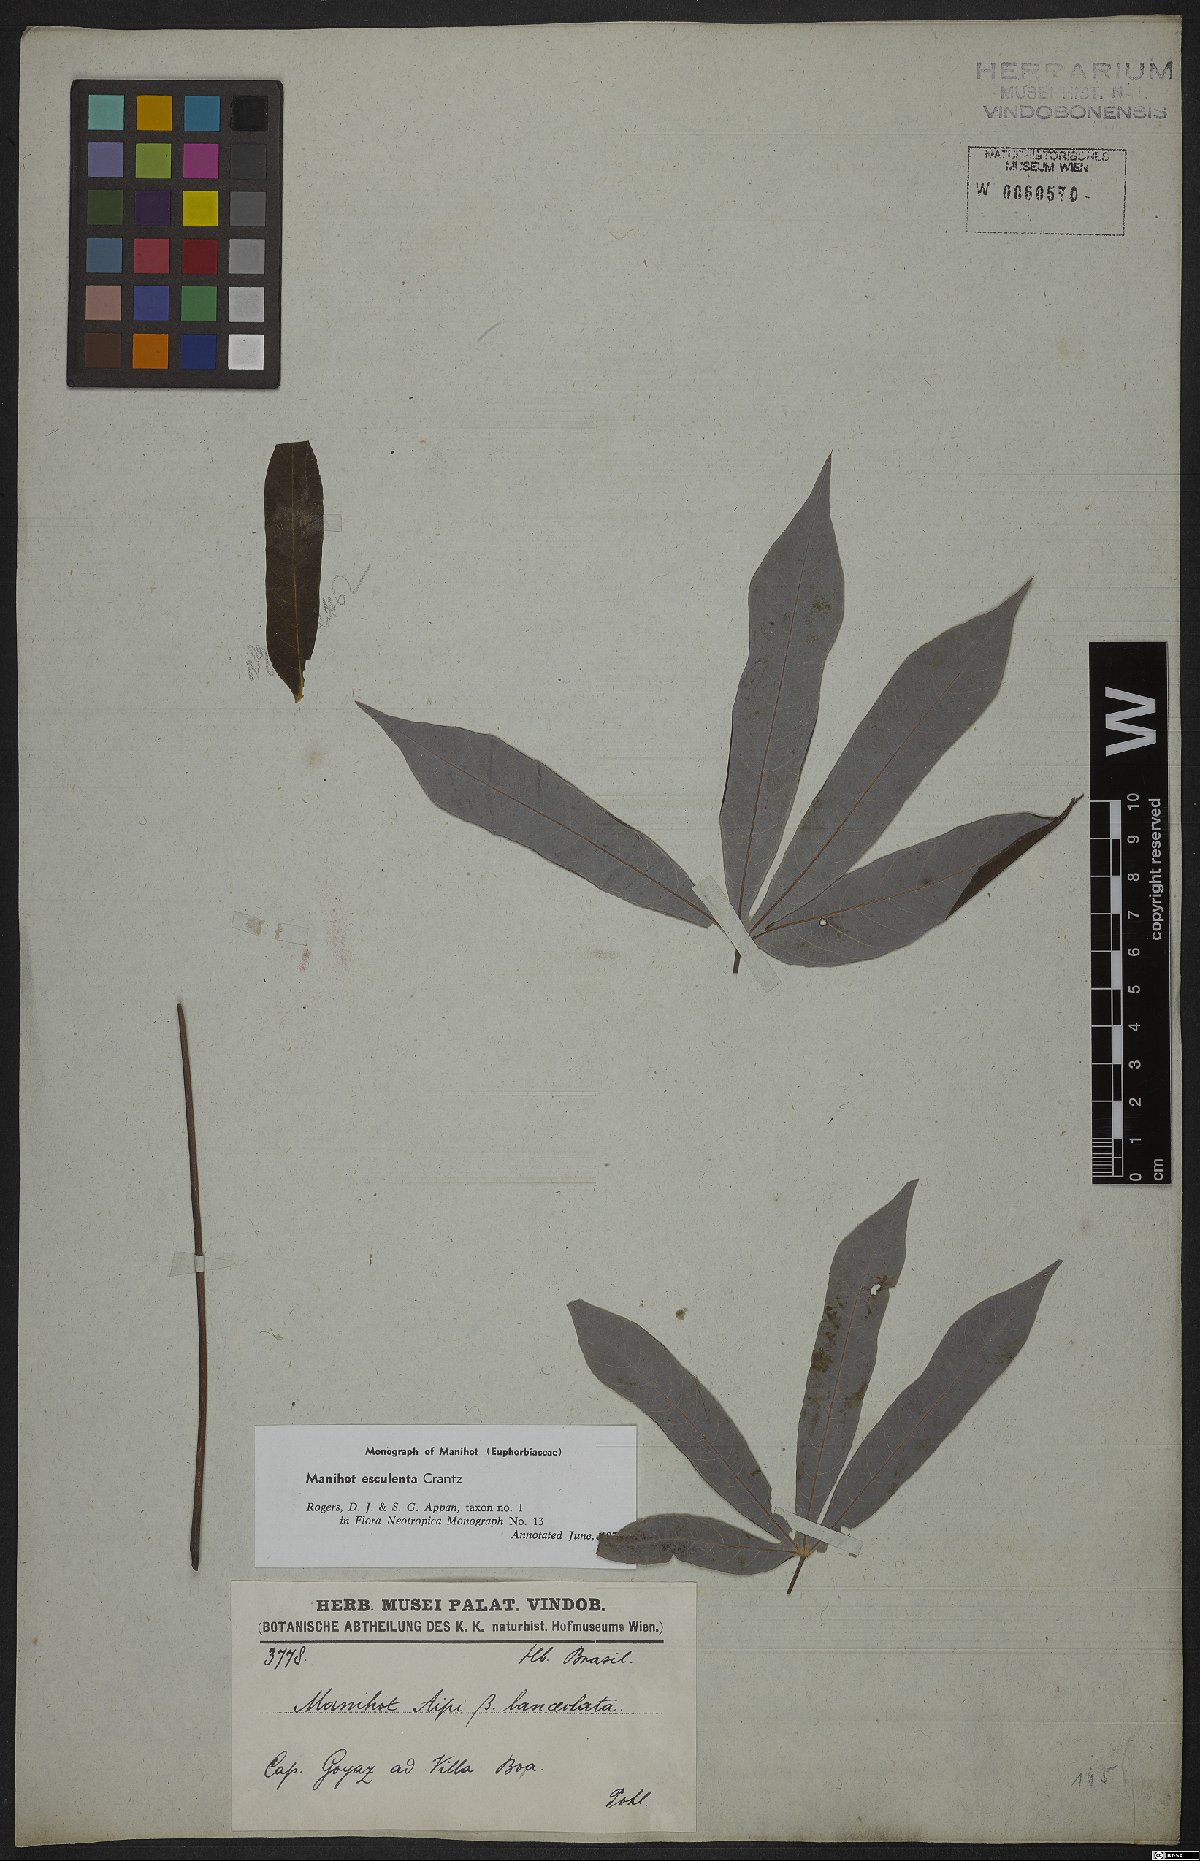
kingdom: Plantae
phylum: Tracheophyta
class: Magnoliopsida
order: Malpighiales
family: Euphorbiaceae
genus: Manihot
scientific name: Manihot esculenta
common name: Cassava
